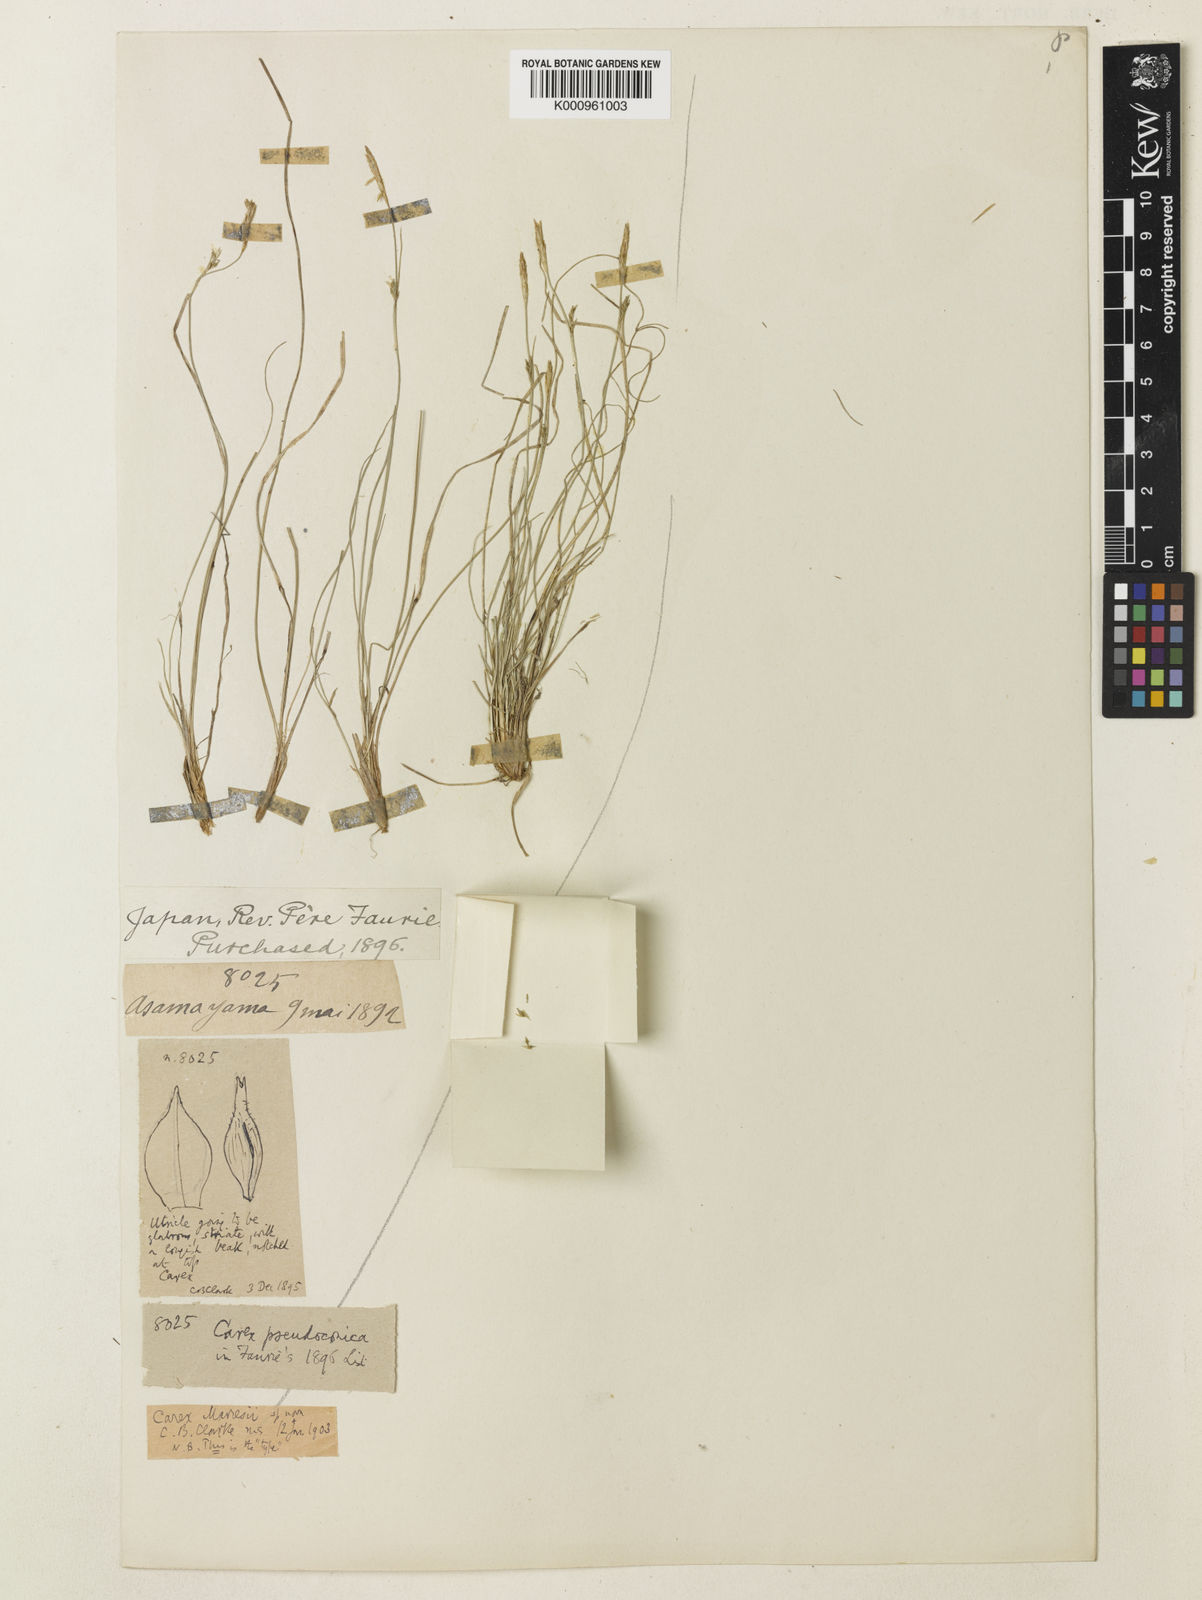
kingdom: Plantae
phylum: Tracheophyta
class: Liliopsida
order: Poales
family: Cyperaceae
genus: Carex
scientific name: Carex pisiformis
